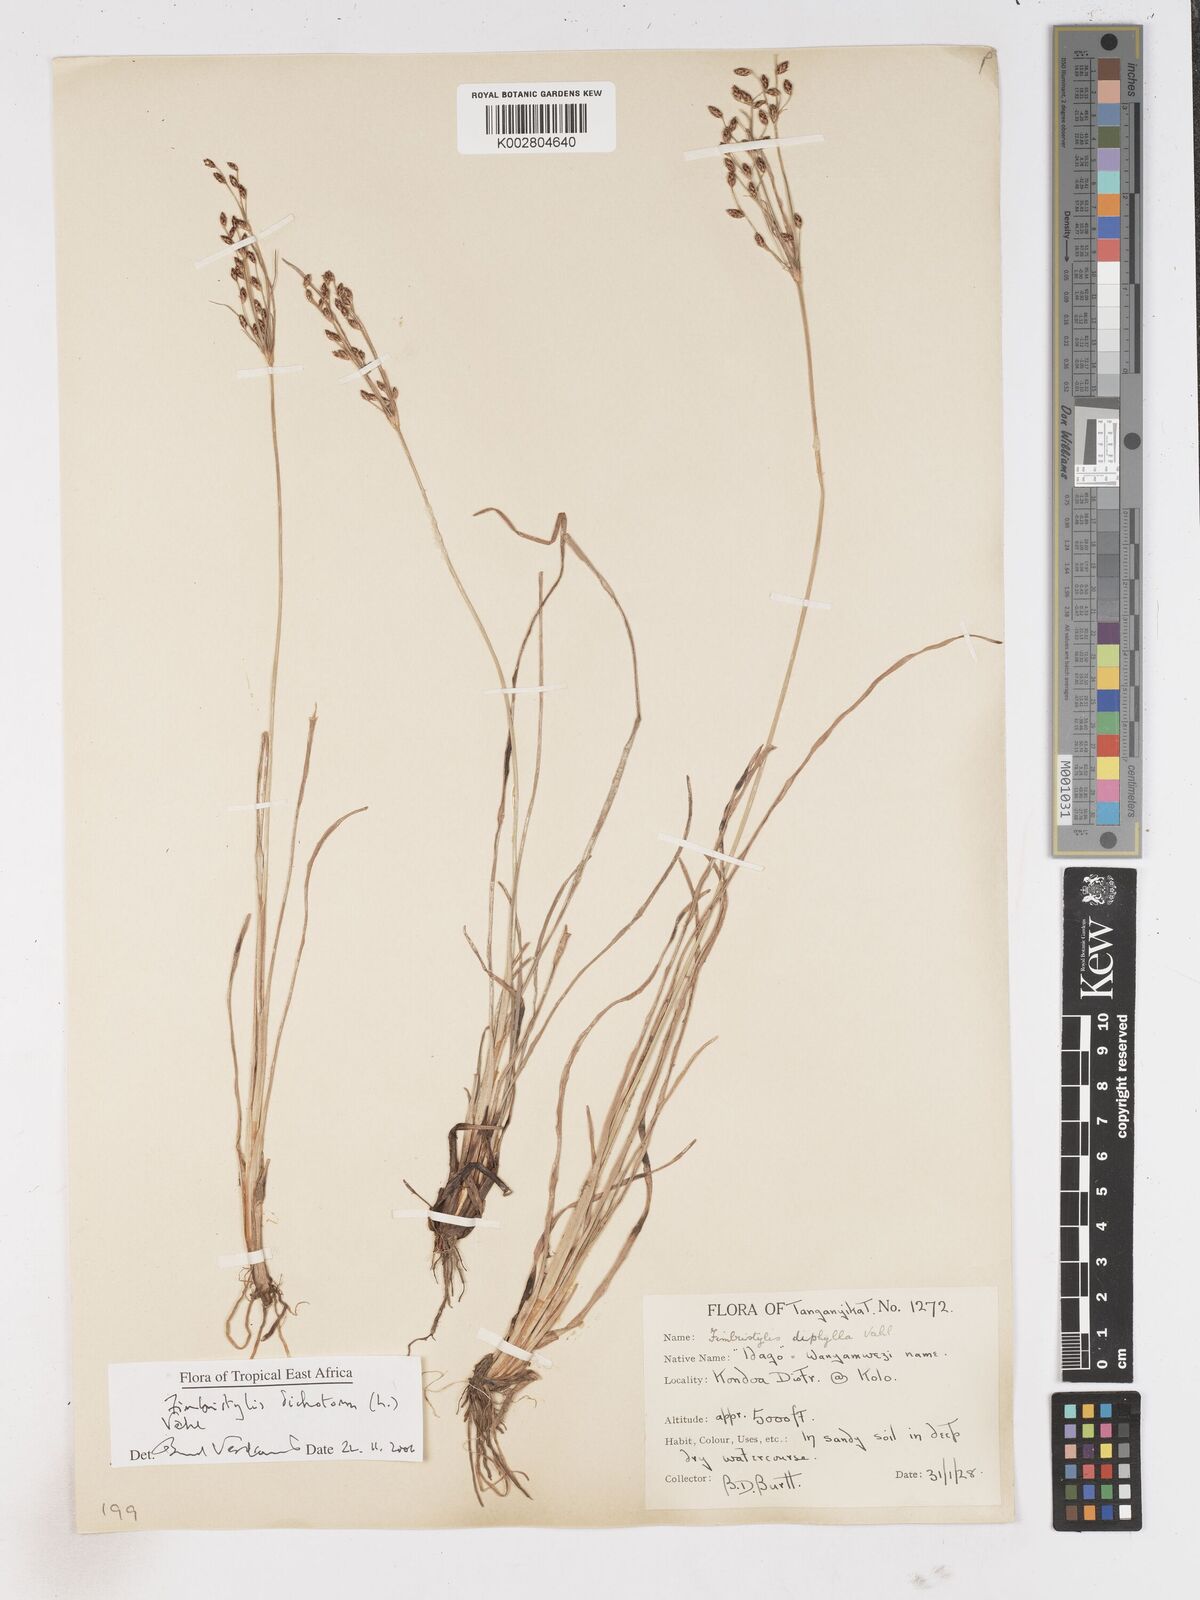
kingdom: Plantae
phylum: Tracheophyta
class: Liliopsida
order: Poales
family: Cyperaceae
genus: Fimbristylis
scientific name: Fimbristylis dichotoma
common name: Forked fimbry
